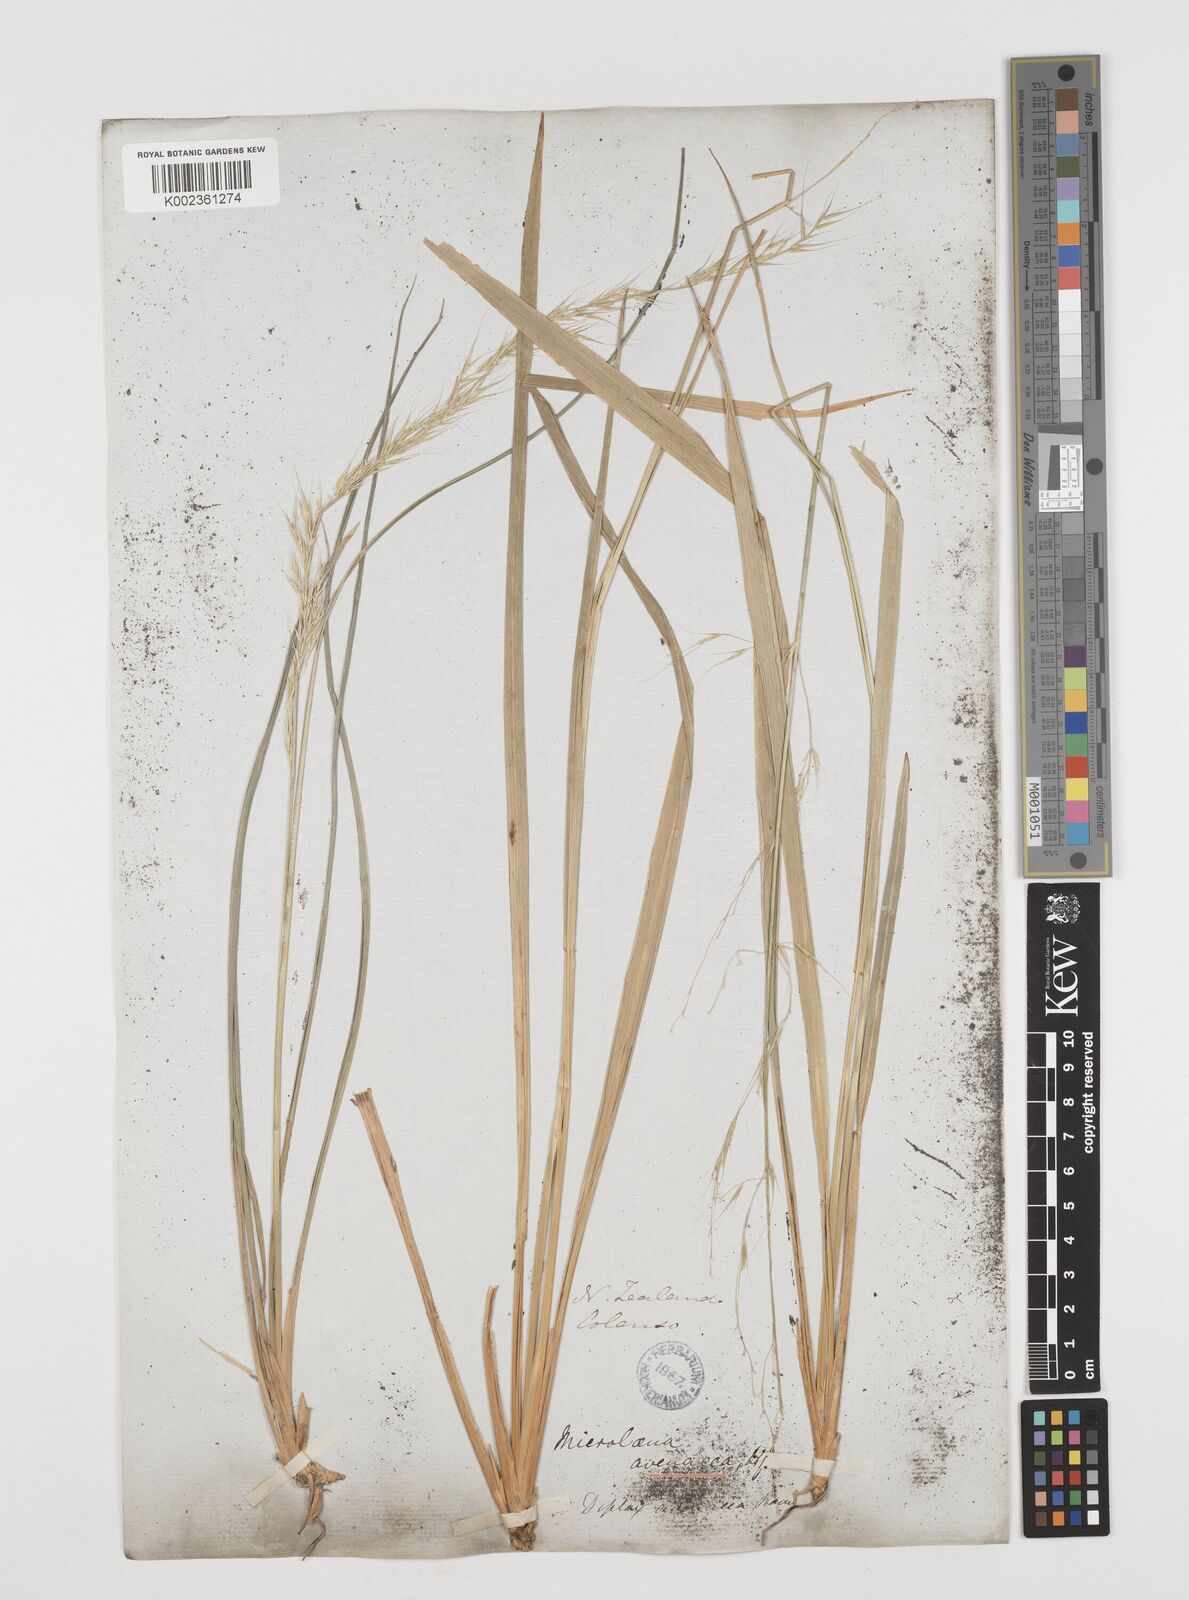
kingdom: Plantae
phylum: Tracheophyta
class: Liliopsida
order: Poales
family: Poaceae
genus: Ehrharta
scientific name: Ehrharta diplax
